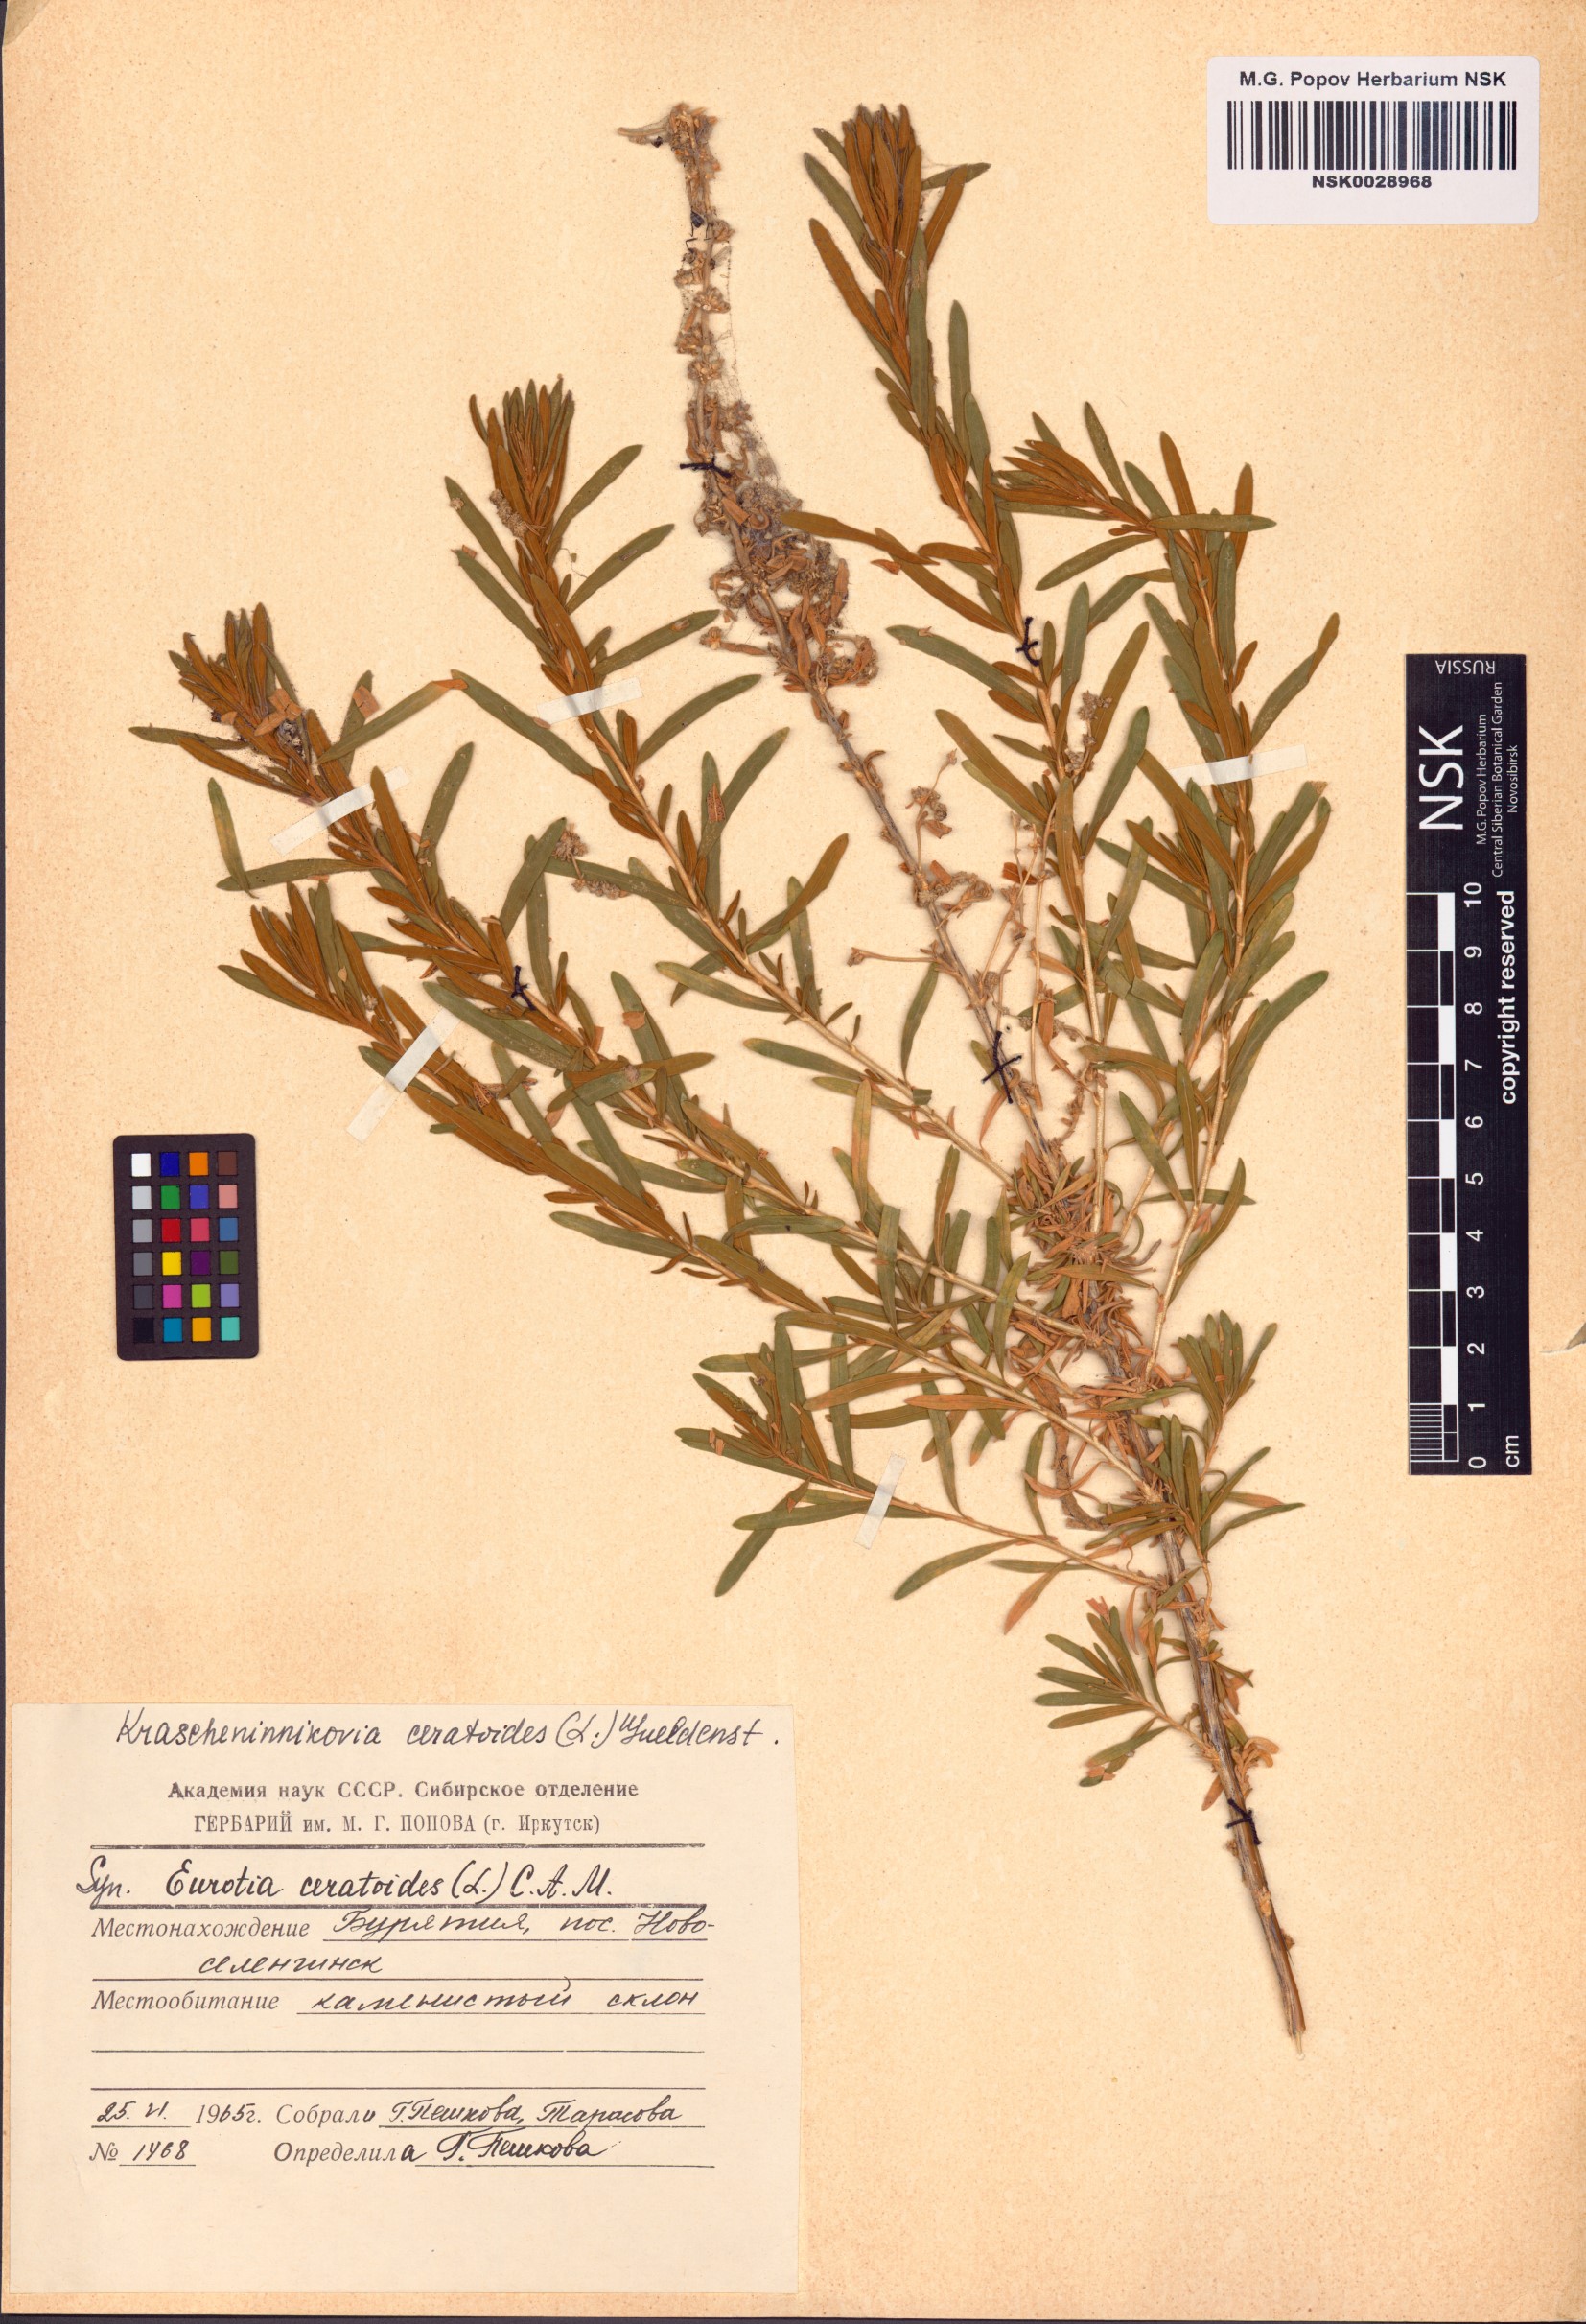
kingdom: Plantae
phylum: Tracheophyta
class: Magnoliopsida
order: Caryophyllales
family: Amaranthaceae
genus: Krascheninnikovia
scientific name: Krascheninnikovia ceratoides
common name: Pamirian winterfat
